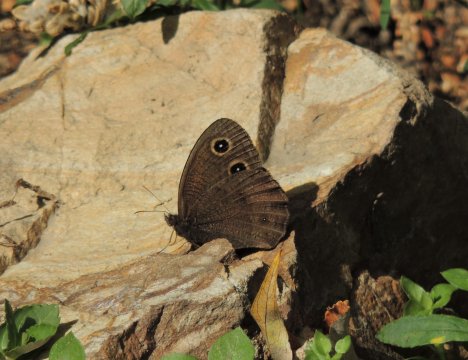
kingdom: Animalia
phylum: Arthropoda
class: Insecta
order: Lepidoptera
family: Nymphalidae
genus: Cercyonis
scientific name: Cercyonis pegala
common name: Common Wood-Nymph
